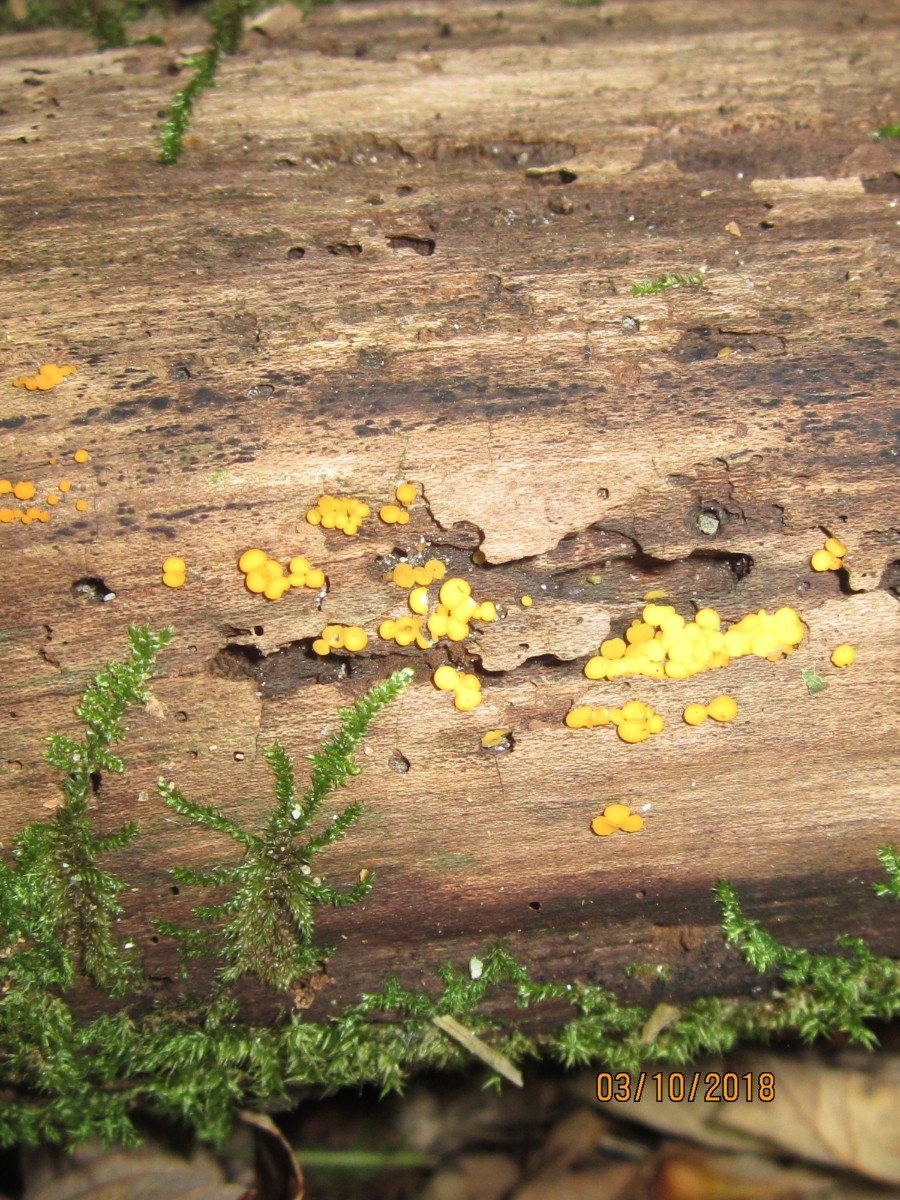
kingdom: Fungi
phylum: Ascomycota
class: Leotiomycetes
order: Helotiales
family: Pezizellaceae
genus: Calycina
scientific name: Calycina citrina
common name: almindelig gulskive
